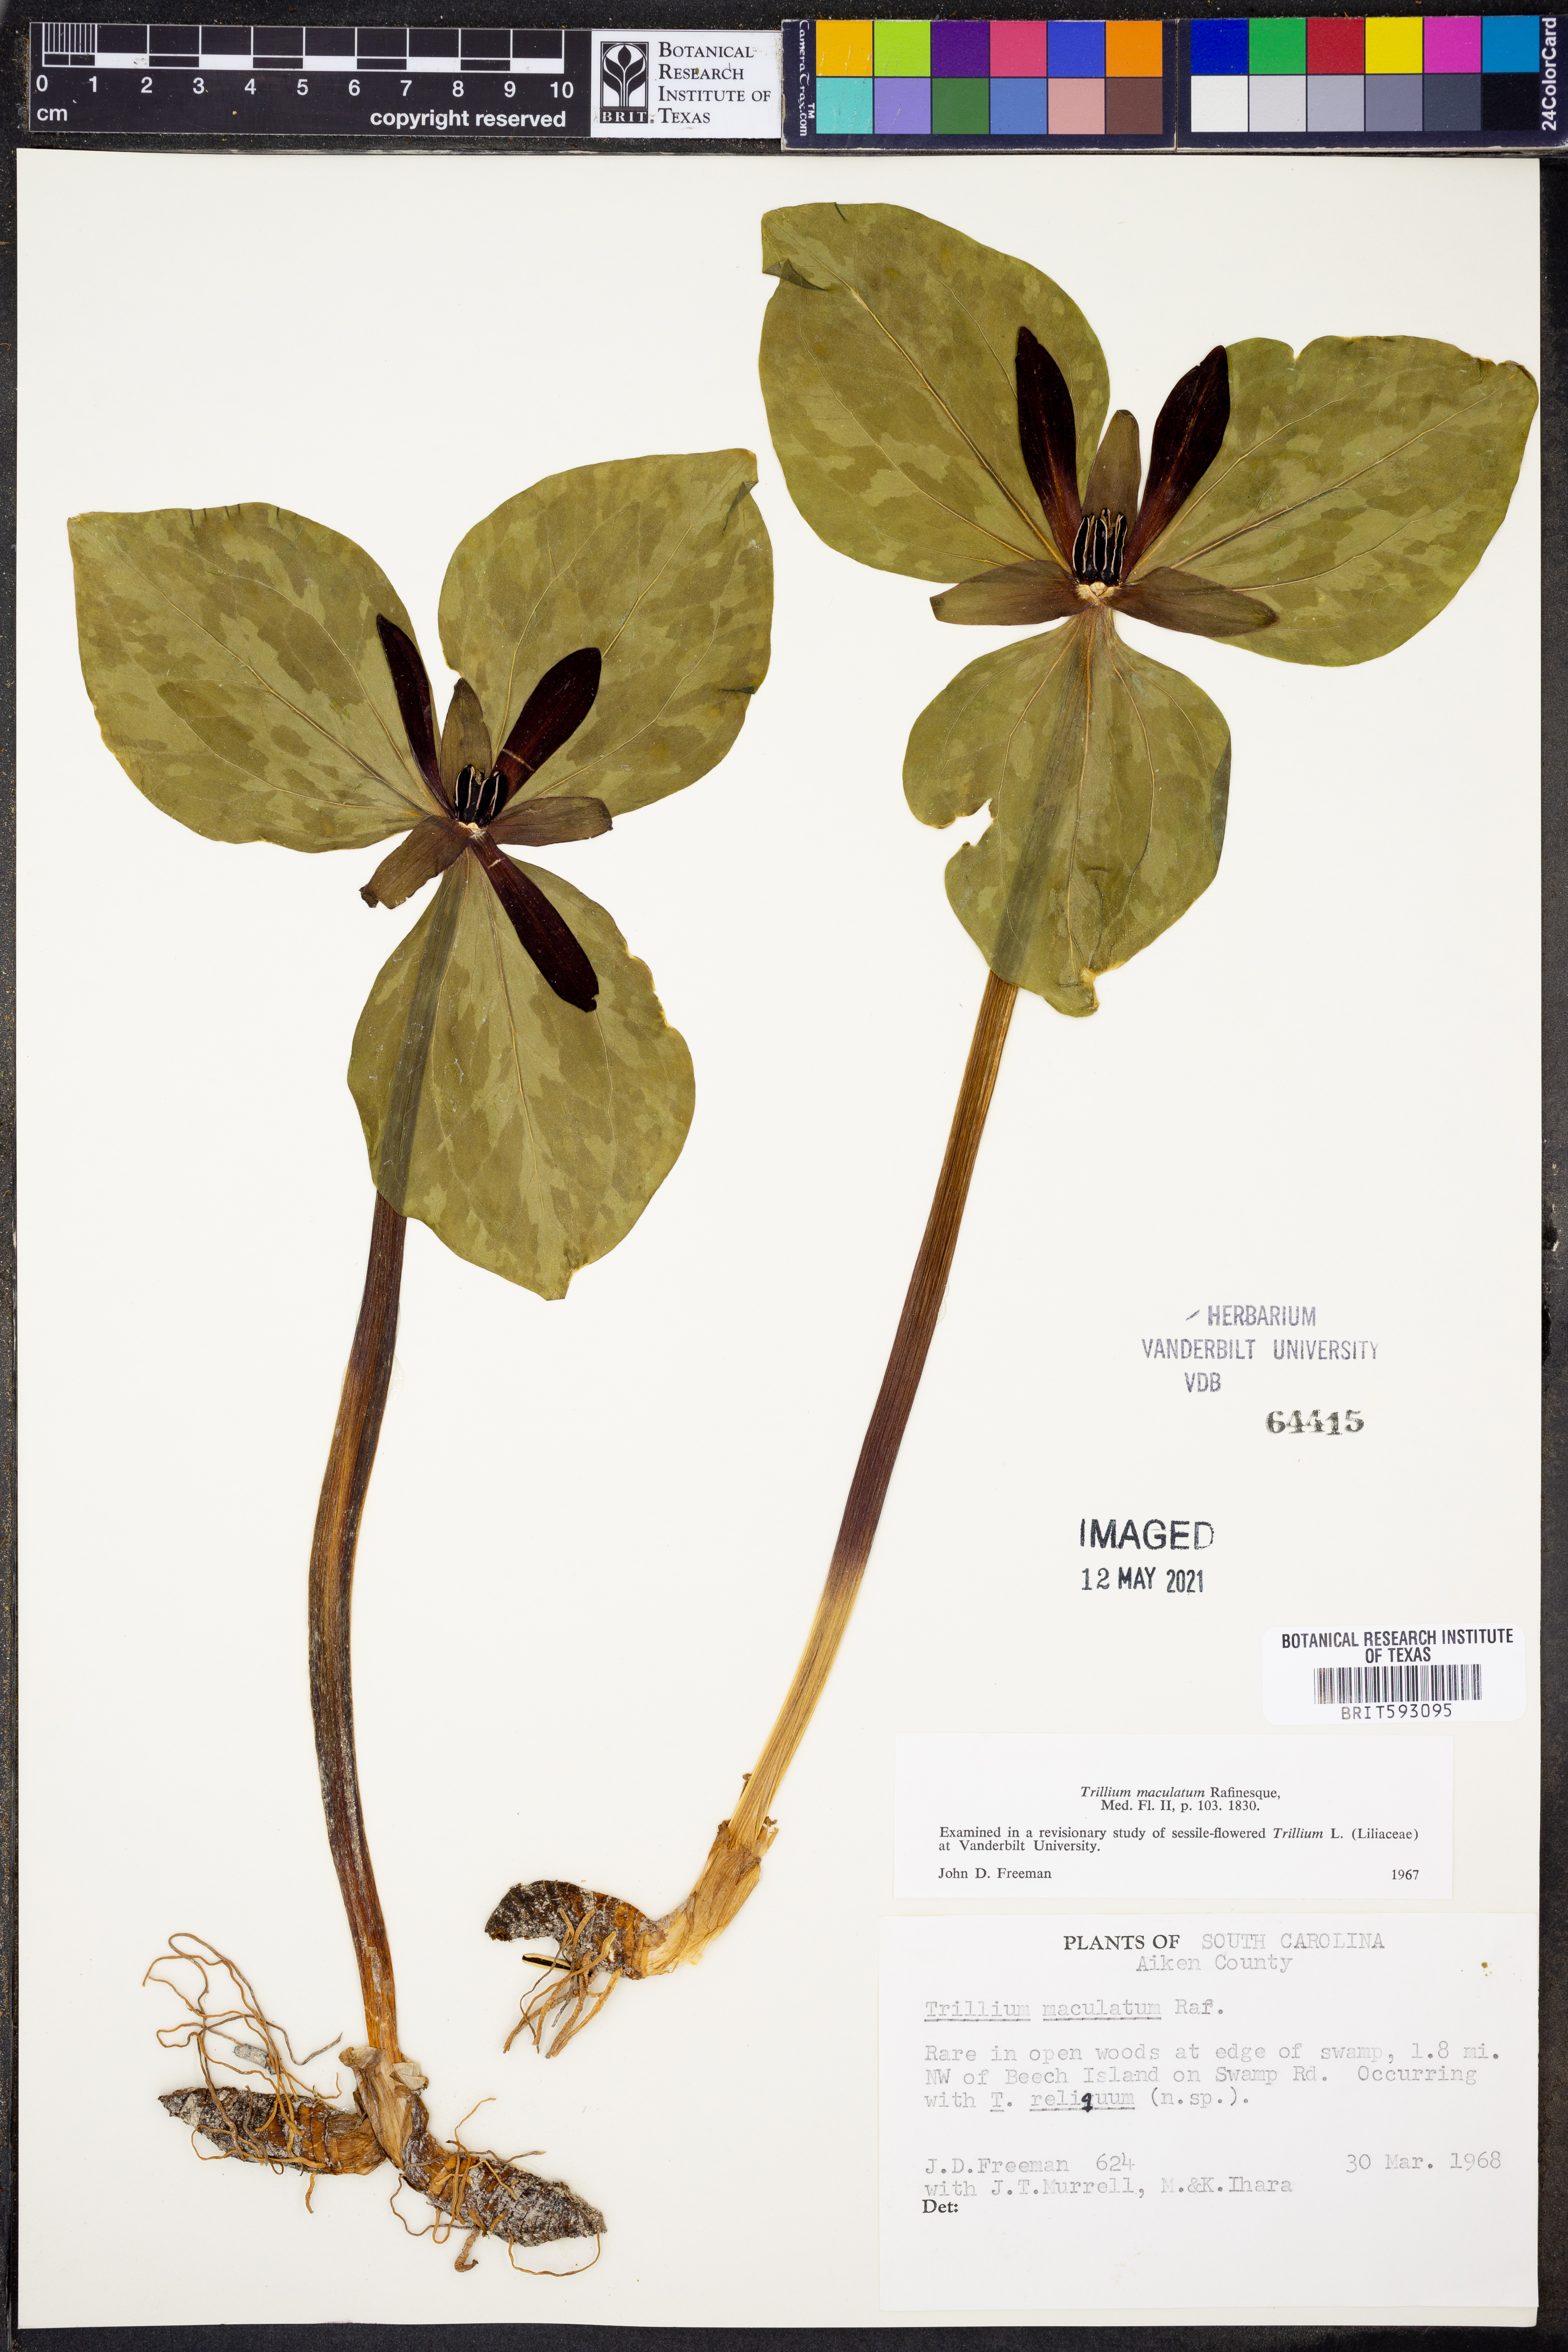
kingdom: Plantae
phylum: Tracheophyta
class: Liliopsida
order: Liliales
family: Melanthiaceae
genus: Trillium
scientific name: Trillium maculatum
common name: Mottled trillium
